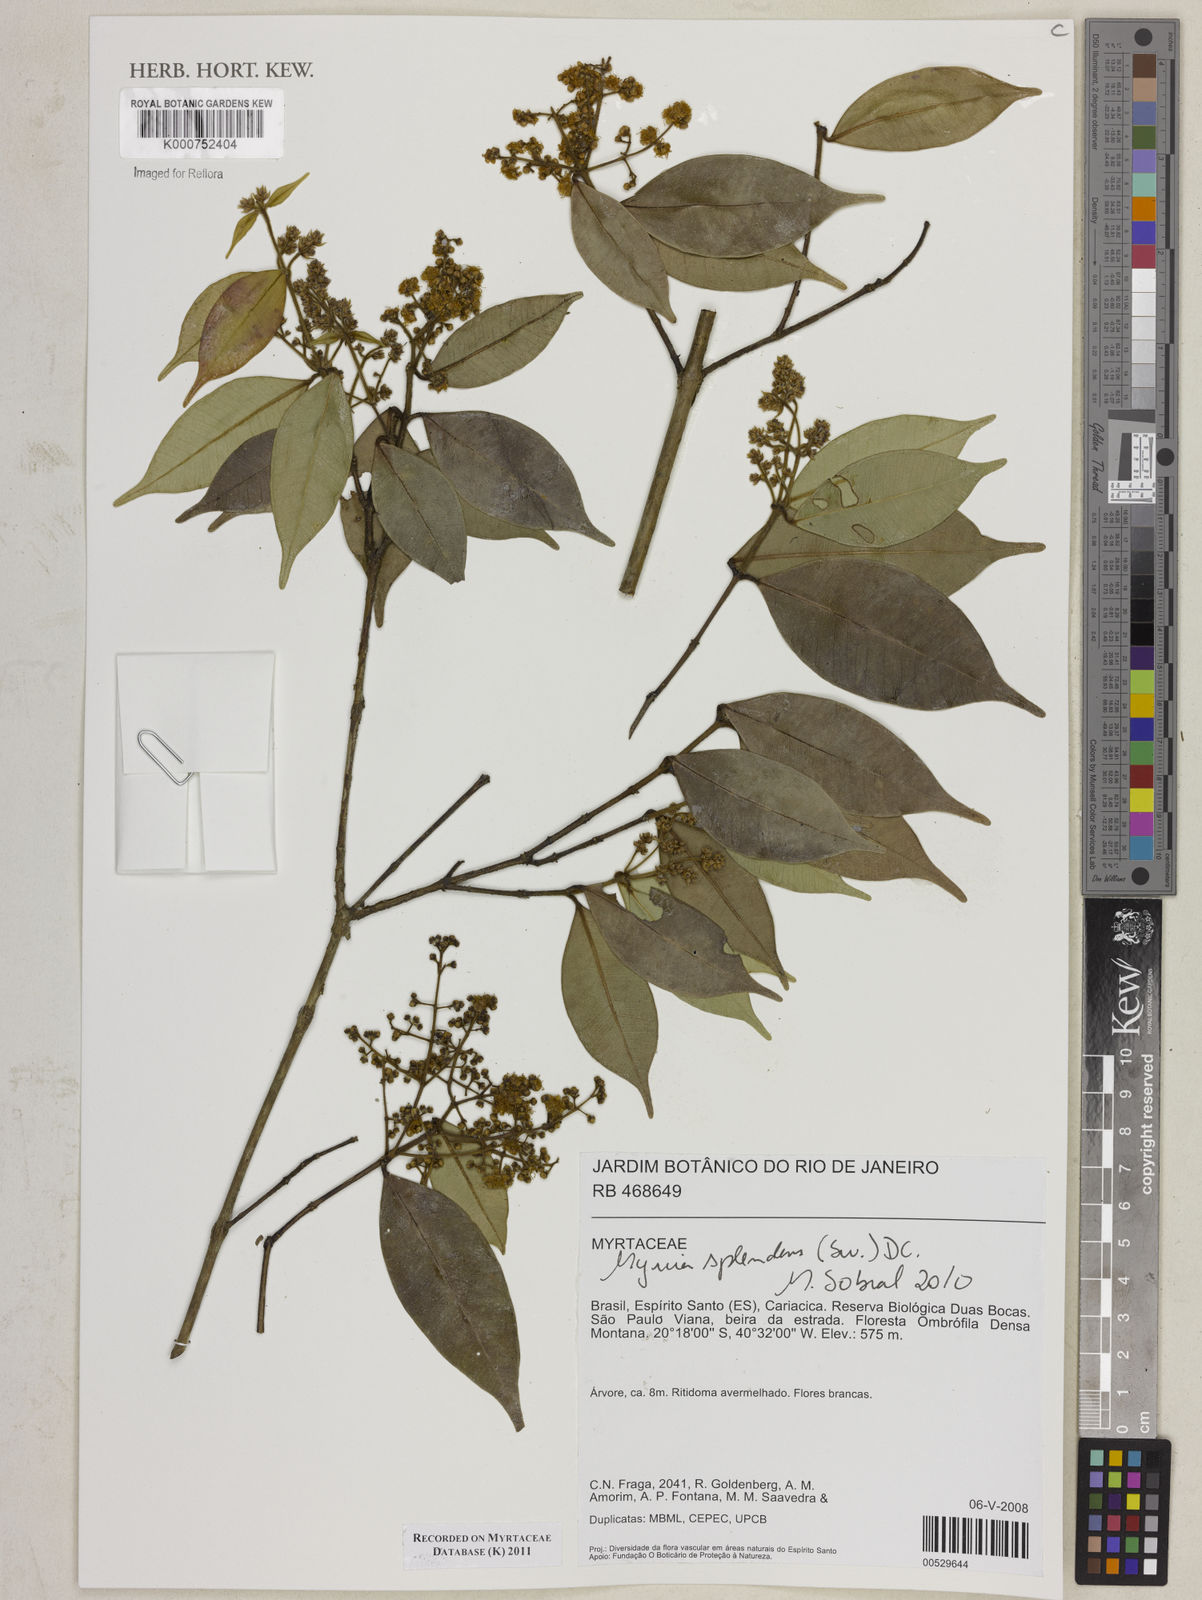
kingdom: Plantae
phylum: Tracheophyta
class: Magnoliopsida
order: Myrtales
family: Myrtaceae
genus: Myrcia
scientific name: Myrcia splendens
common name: Surinam cherry
